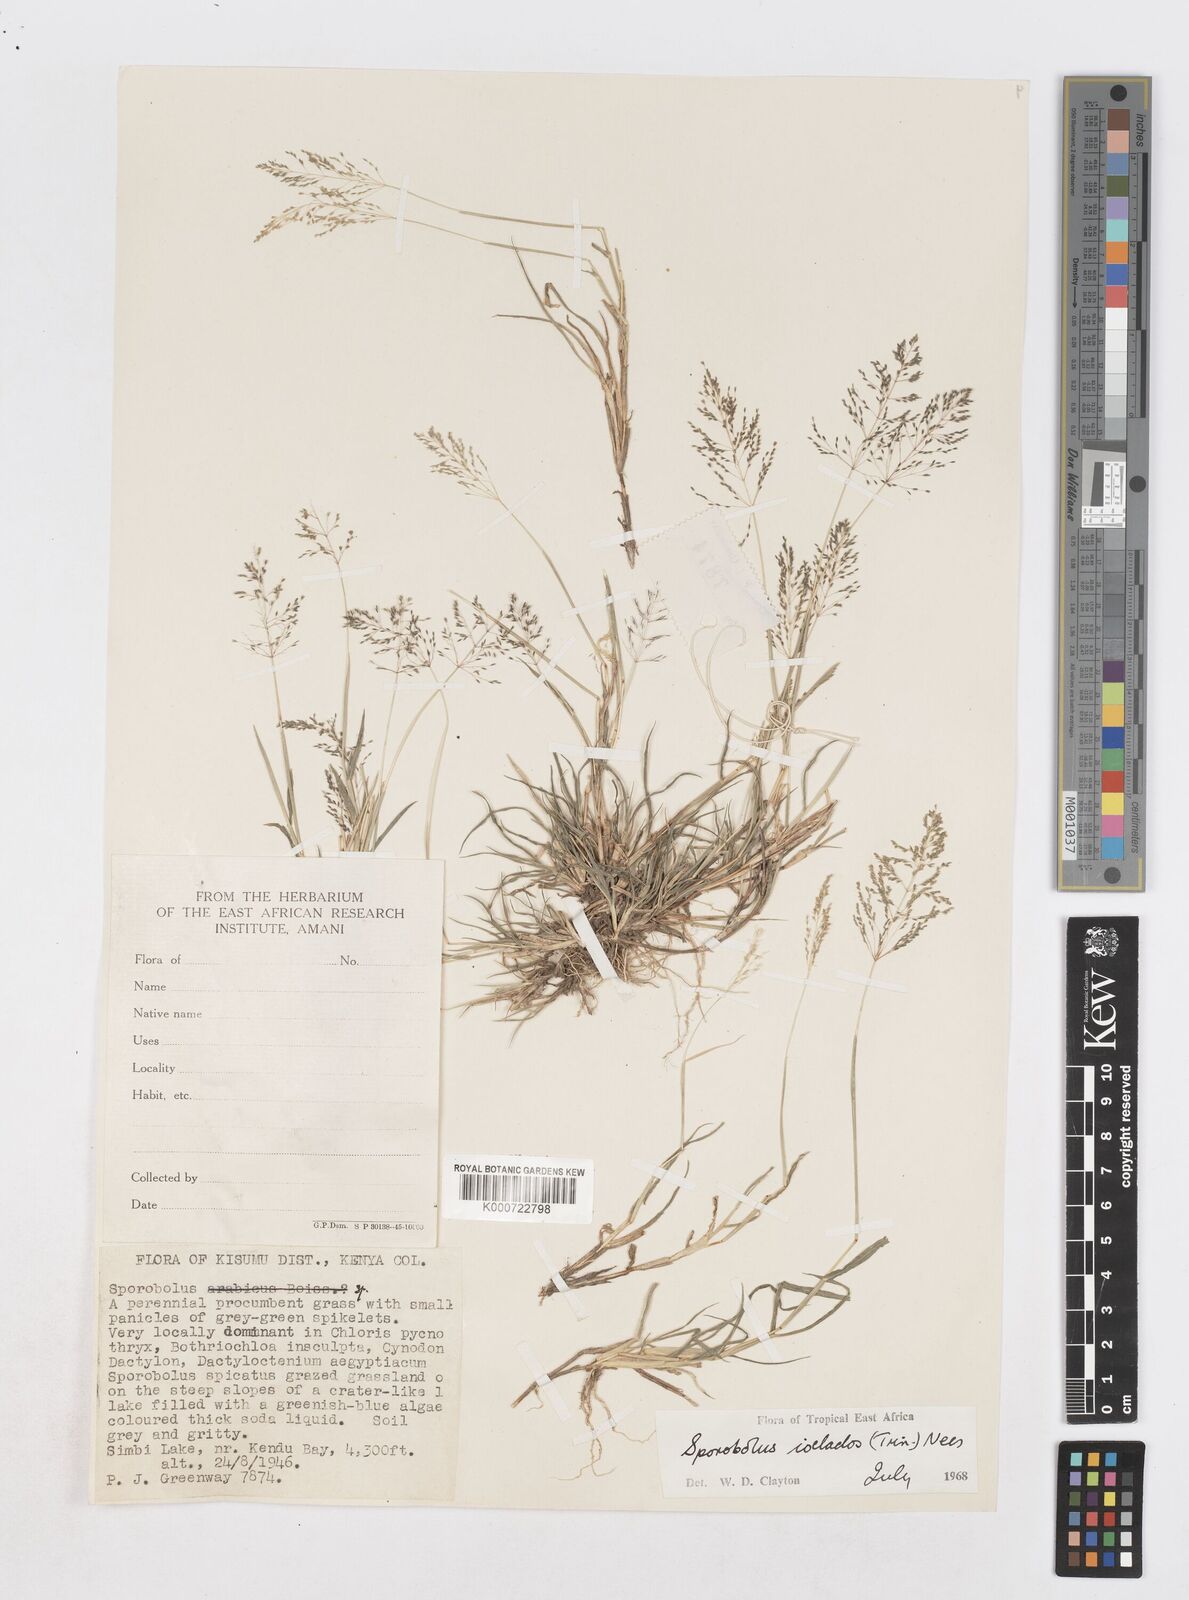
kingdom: Plantae
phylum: Tracheophyta
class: Liliopsida
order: Poales
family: Poaceae
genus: Sporobolus
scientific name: Sporobolus ioclados
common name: Pan dropseed
